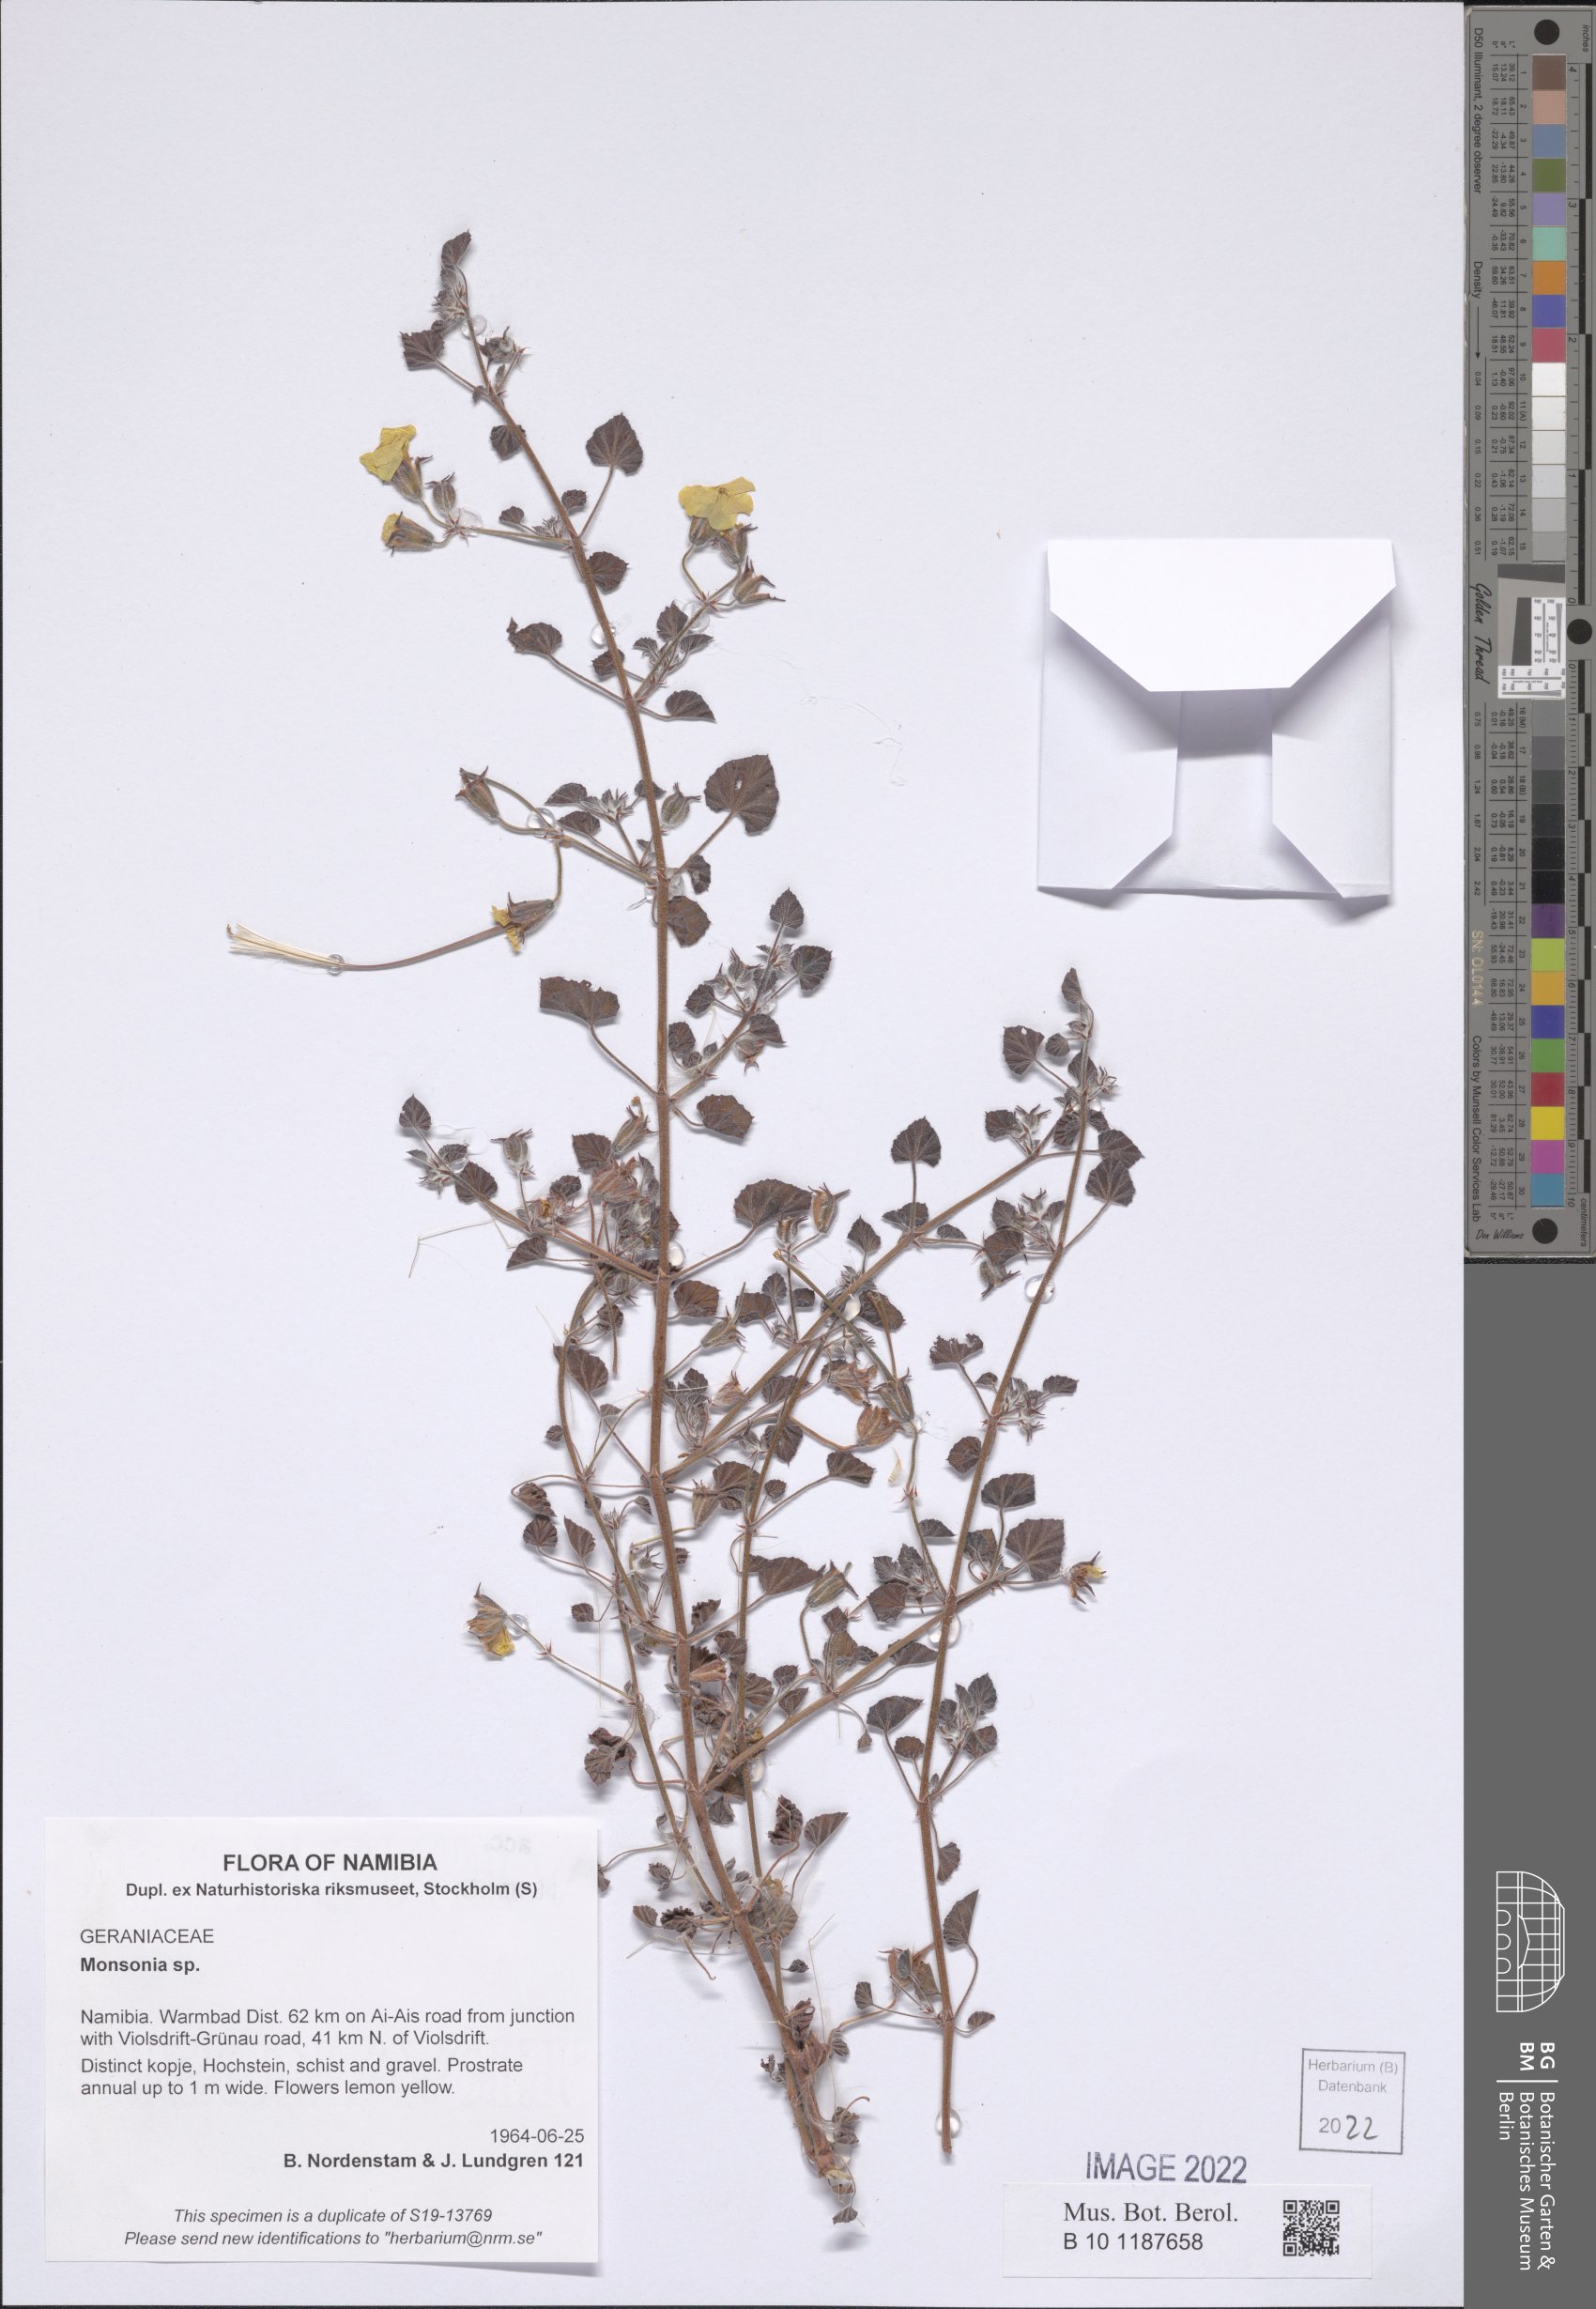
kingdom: Plantae
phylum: Tracheophyta
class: Magnoliopsida
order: Geraniales
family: Geraniaceae
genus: Monsonia
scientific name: Monsonia
